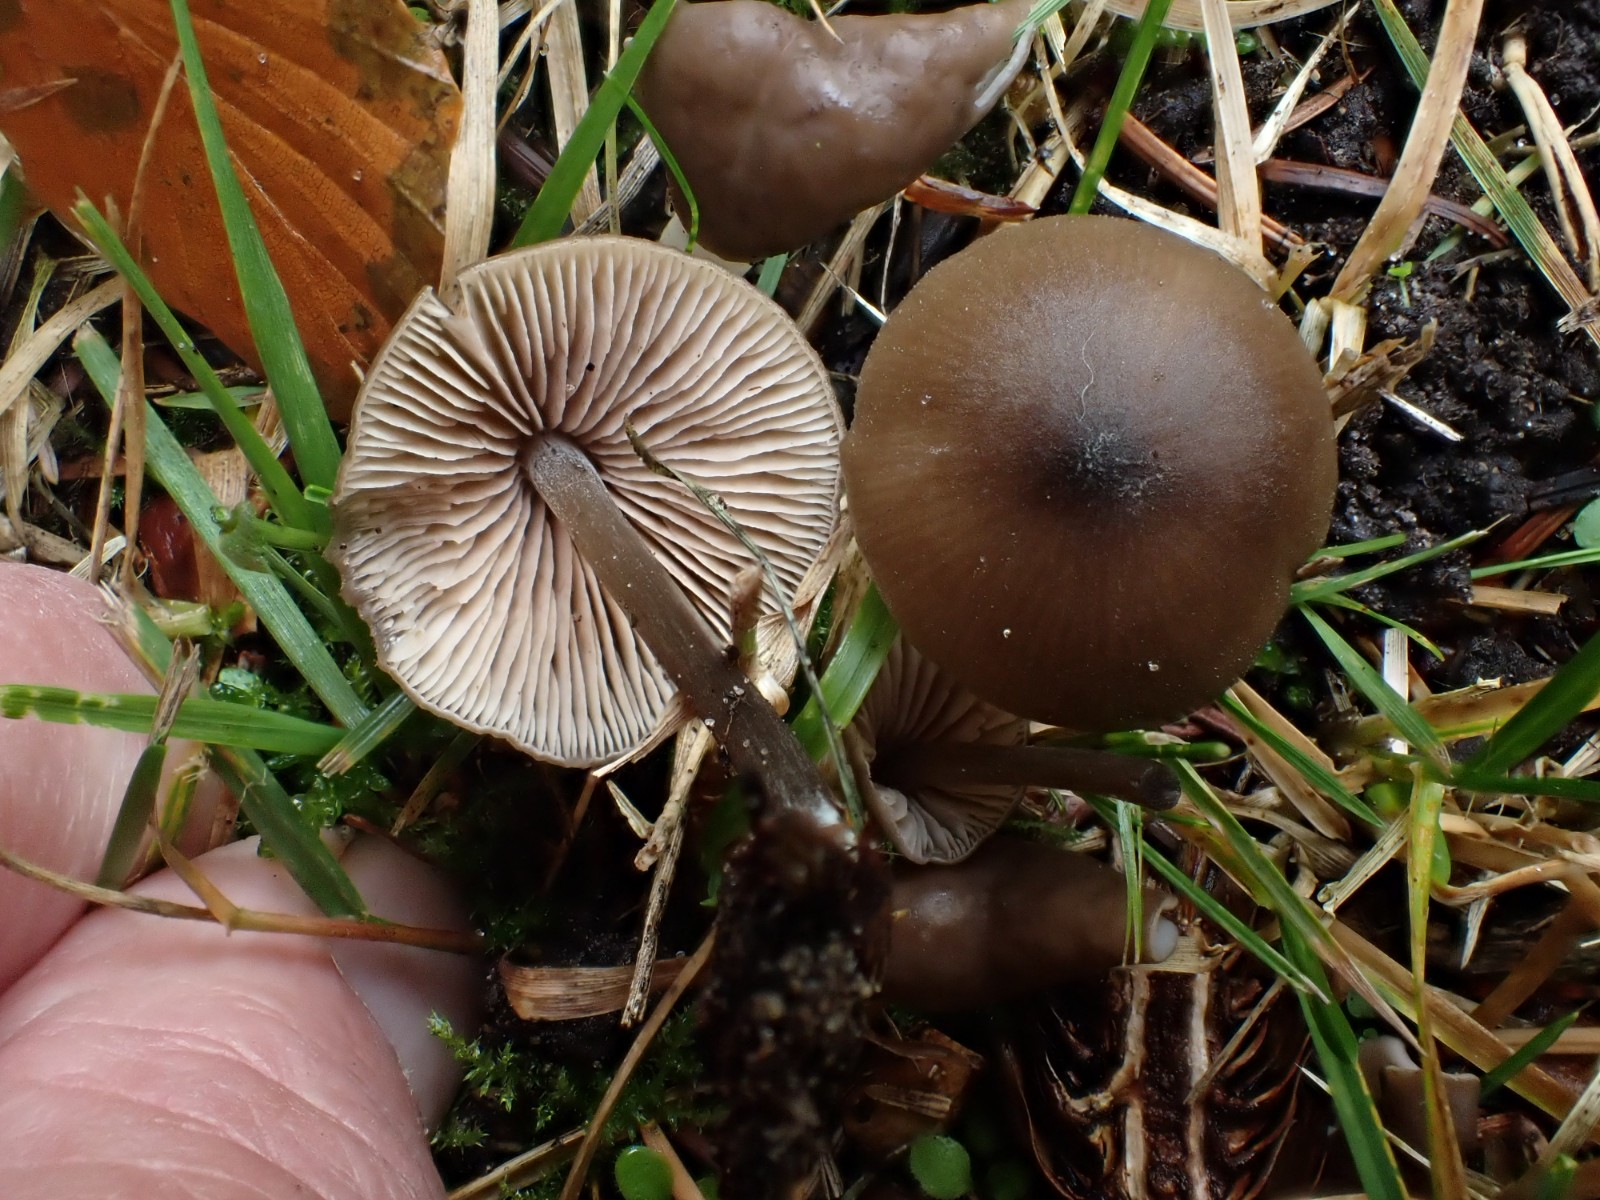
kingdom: Fungi
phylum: Basidiomycota
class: Agaricomycetes
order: Agaricales
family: Entolomataceae
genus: Entoloma
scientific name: Entoloma hebes
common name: krat-rødblad
